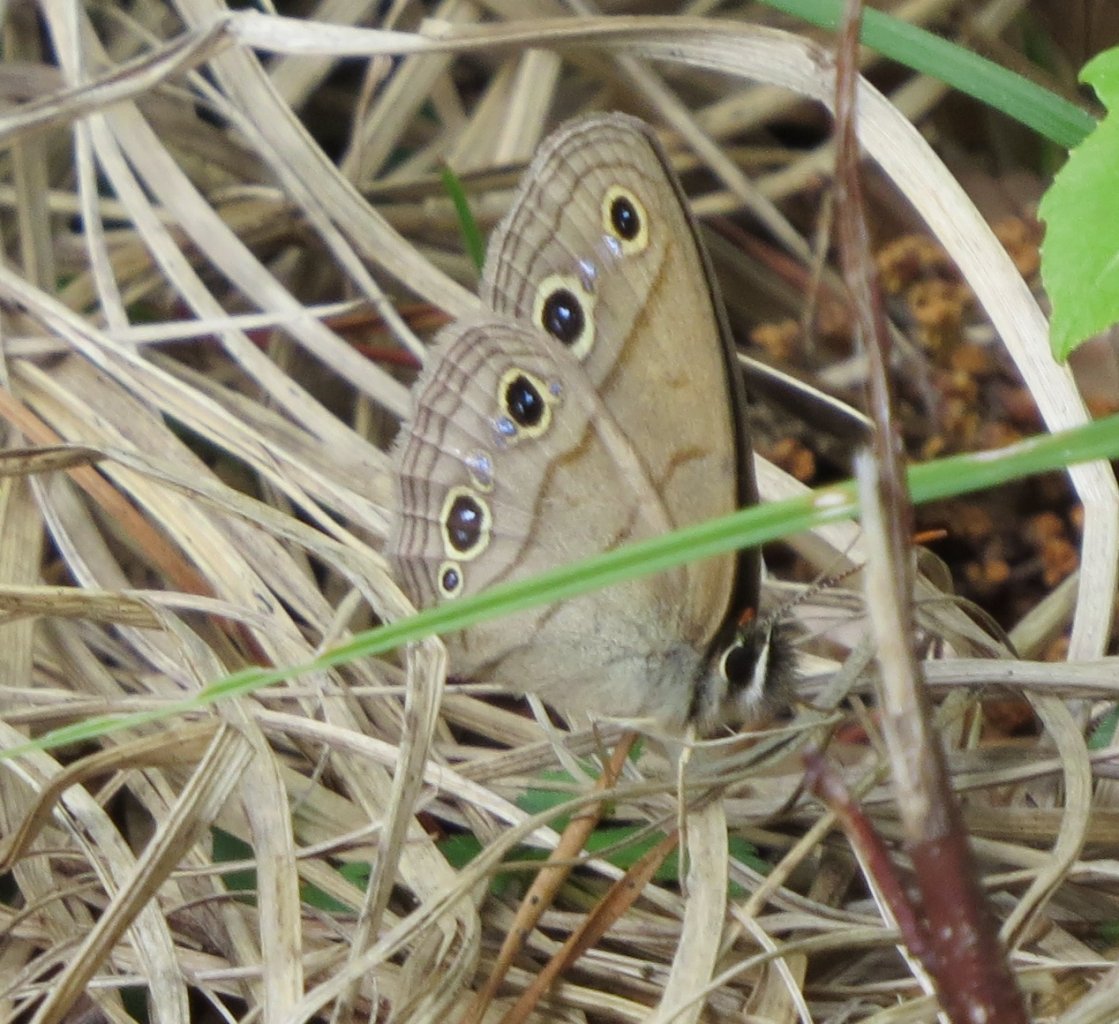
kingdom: Animalia
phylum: Arthropoda
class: Insecta
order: Lepidoptera
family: Nymphalidae
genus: Euptychia
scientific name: Euptychia cymela
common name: Little Wood Satyr
